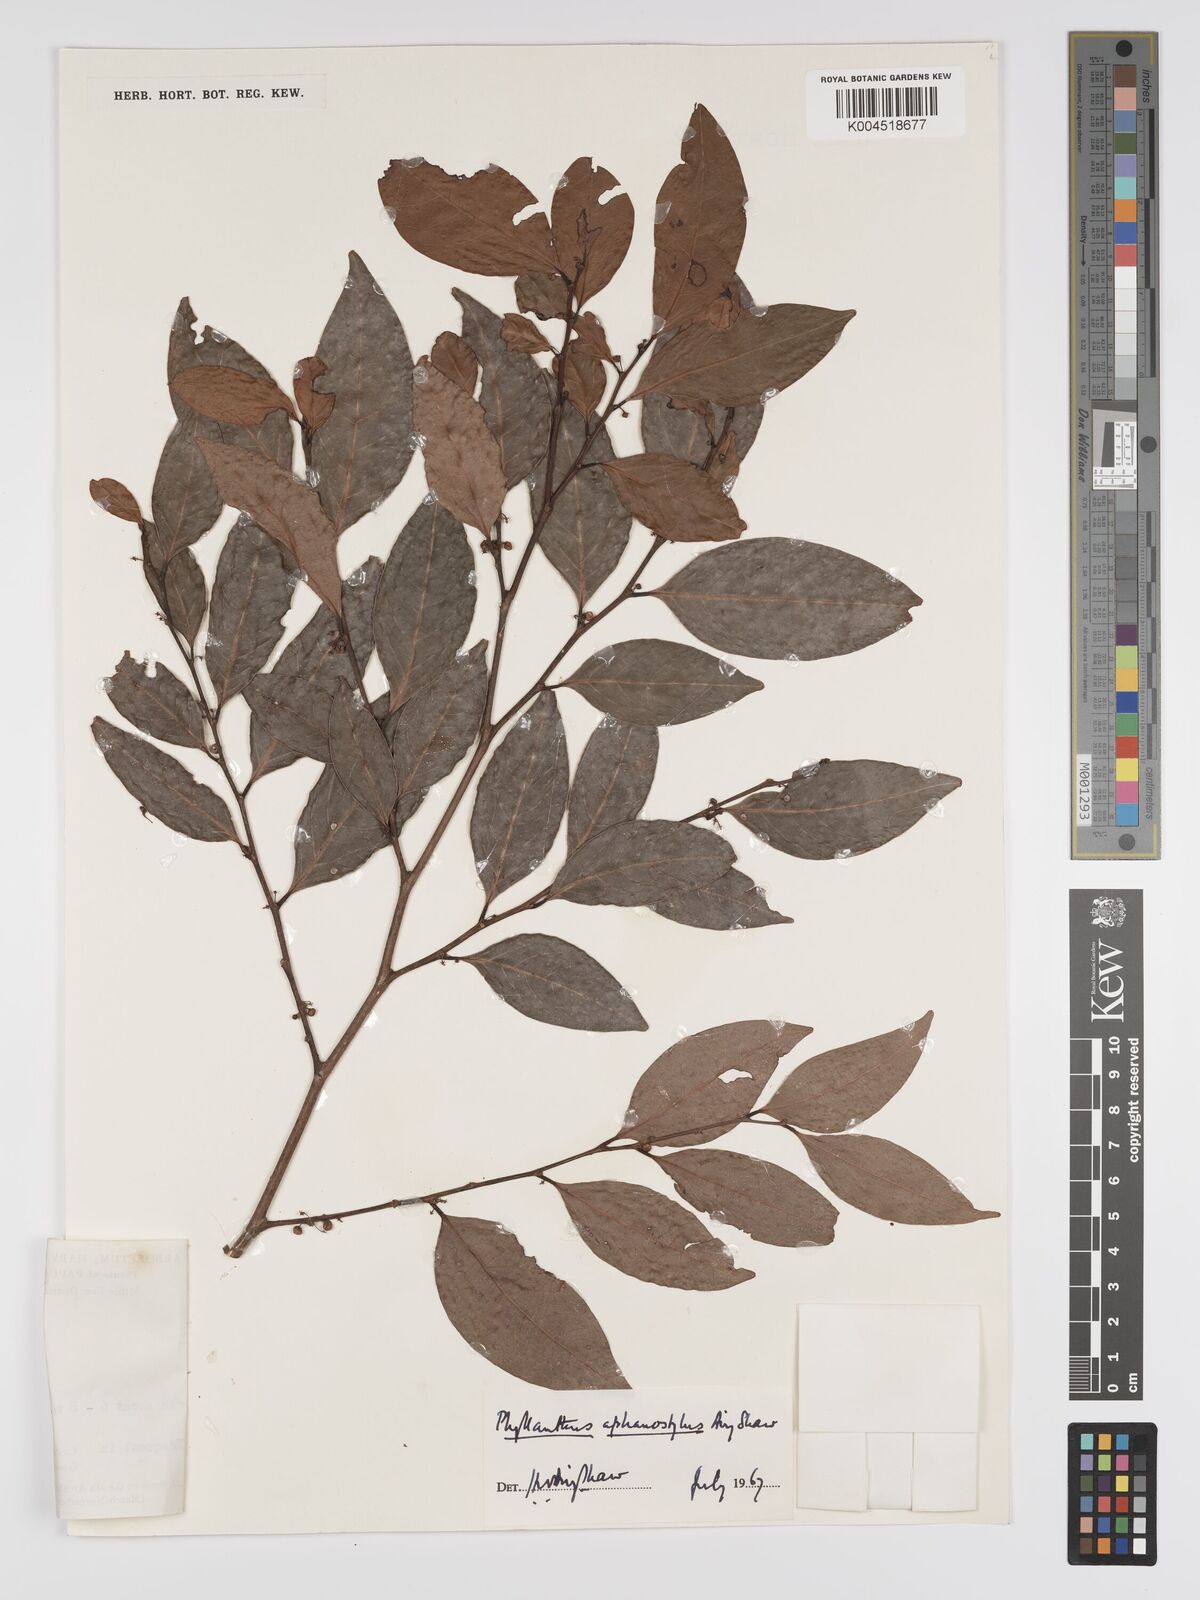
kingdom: Plantae
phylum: Tracheophyta
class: Magnoliopsida
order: Malpighiales
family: Phyllanthaceae
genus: Phyllanthus
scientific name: Phyllanthus aphanostylus
